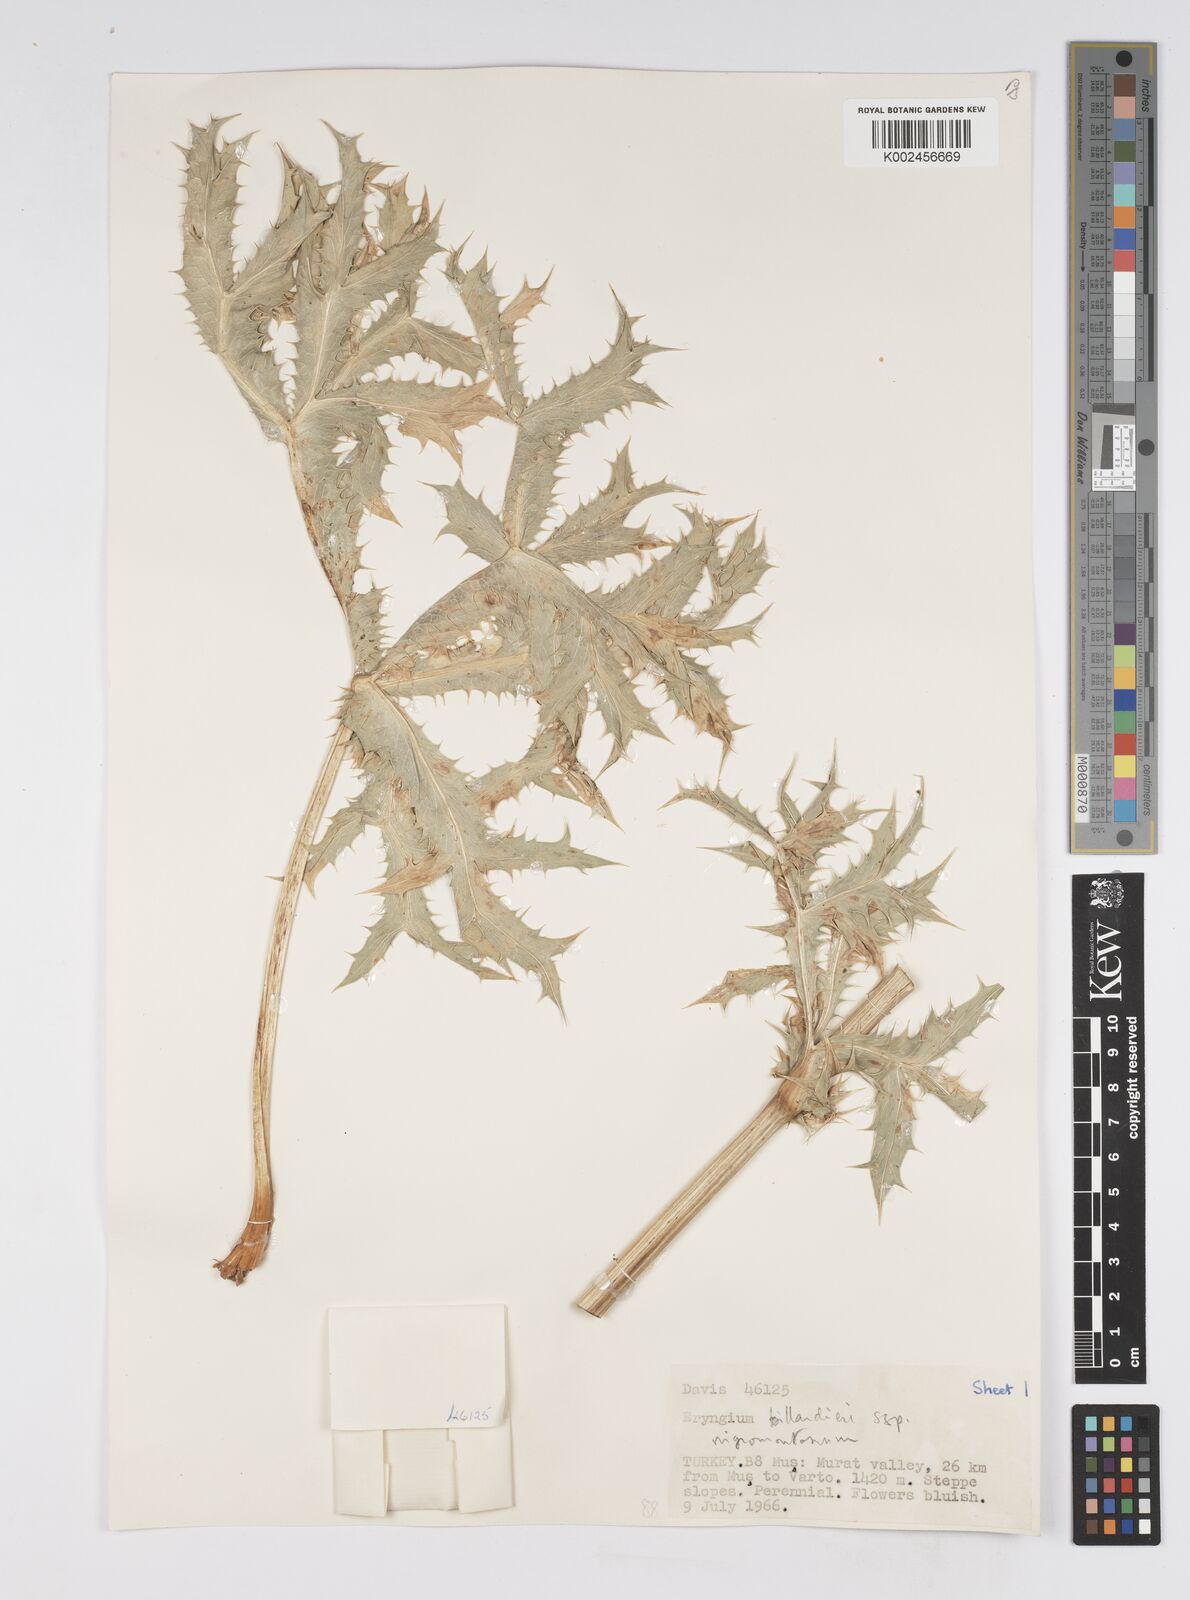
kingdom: Plantae
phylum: Tracheophyta
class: Magnoliopsida
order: Apiales
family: Apiaceae
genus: Eryngium
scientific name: Eryngium billardierei
